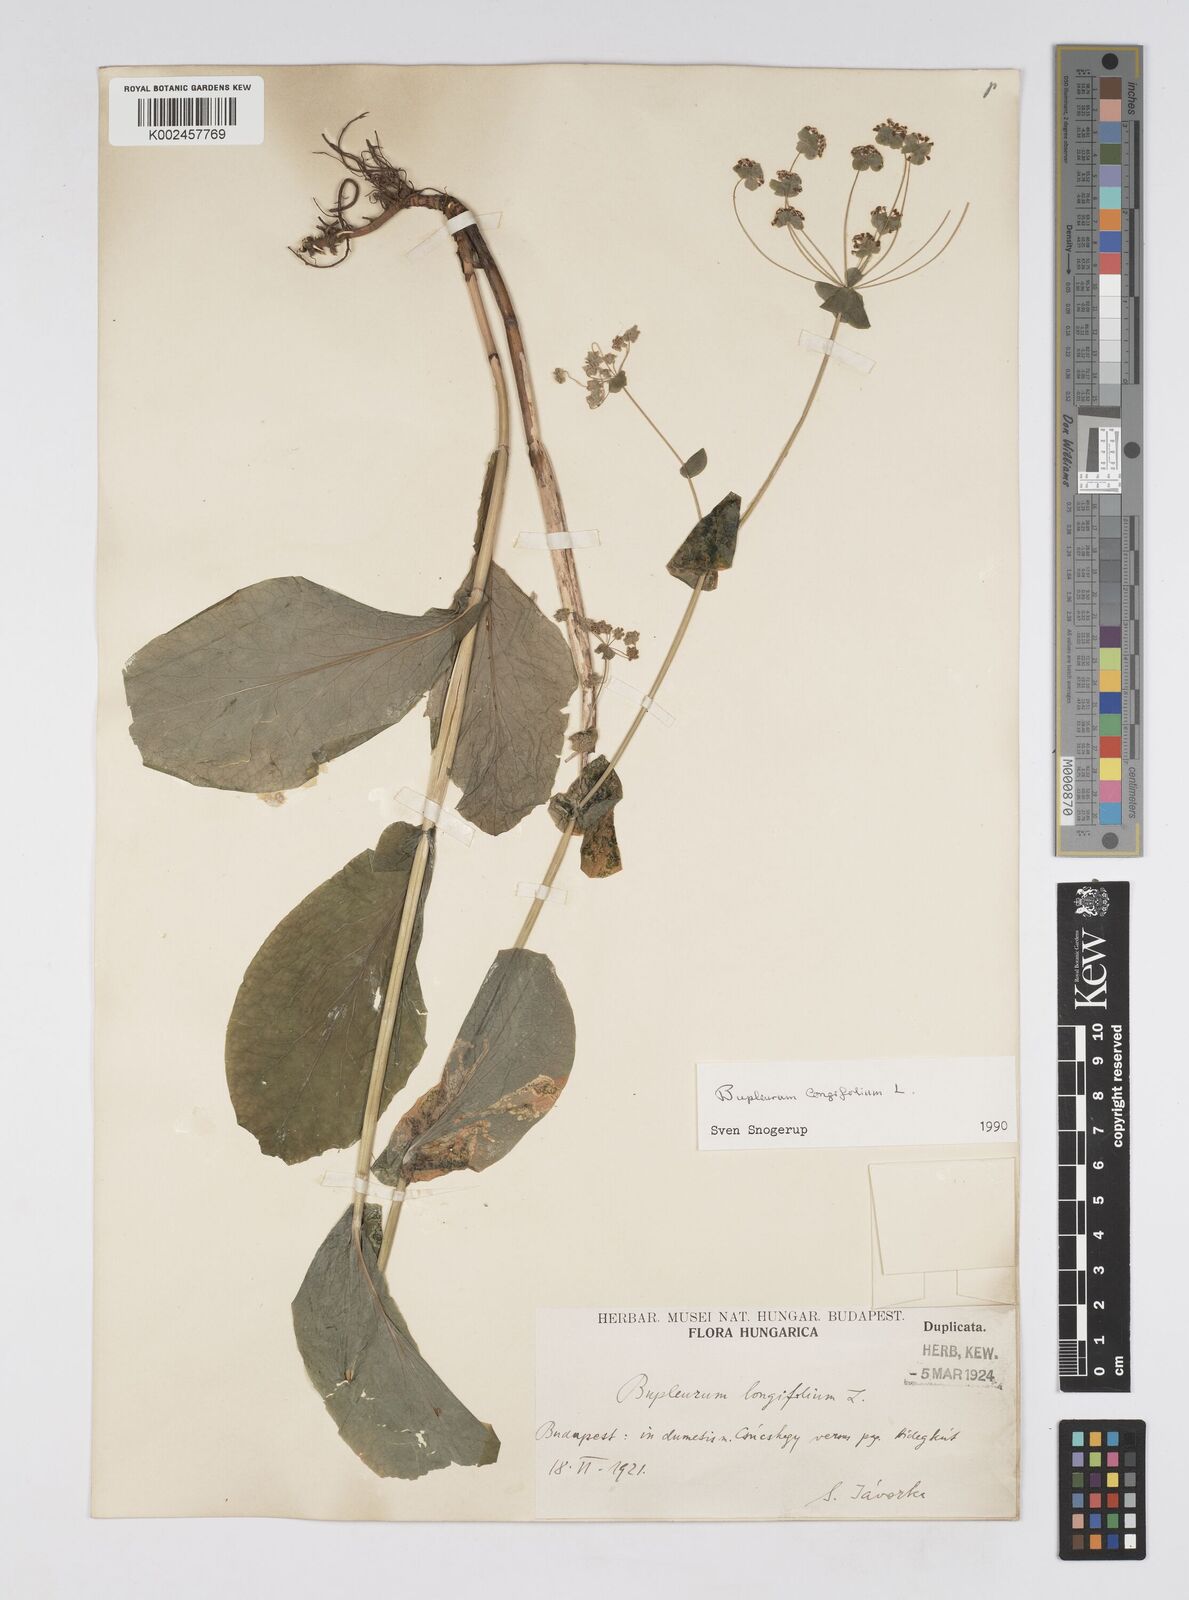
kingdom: Plantae
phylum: Tracheophyta
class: Magnoliopsida
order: Apiales
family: Apiaceae
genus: Bupleurum
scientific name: Bupleurum longifolium
